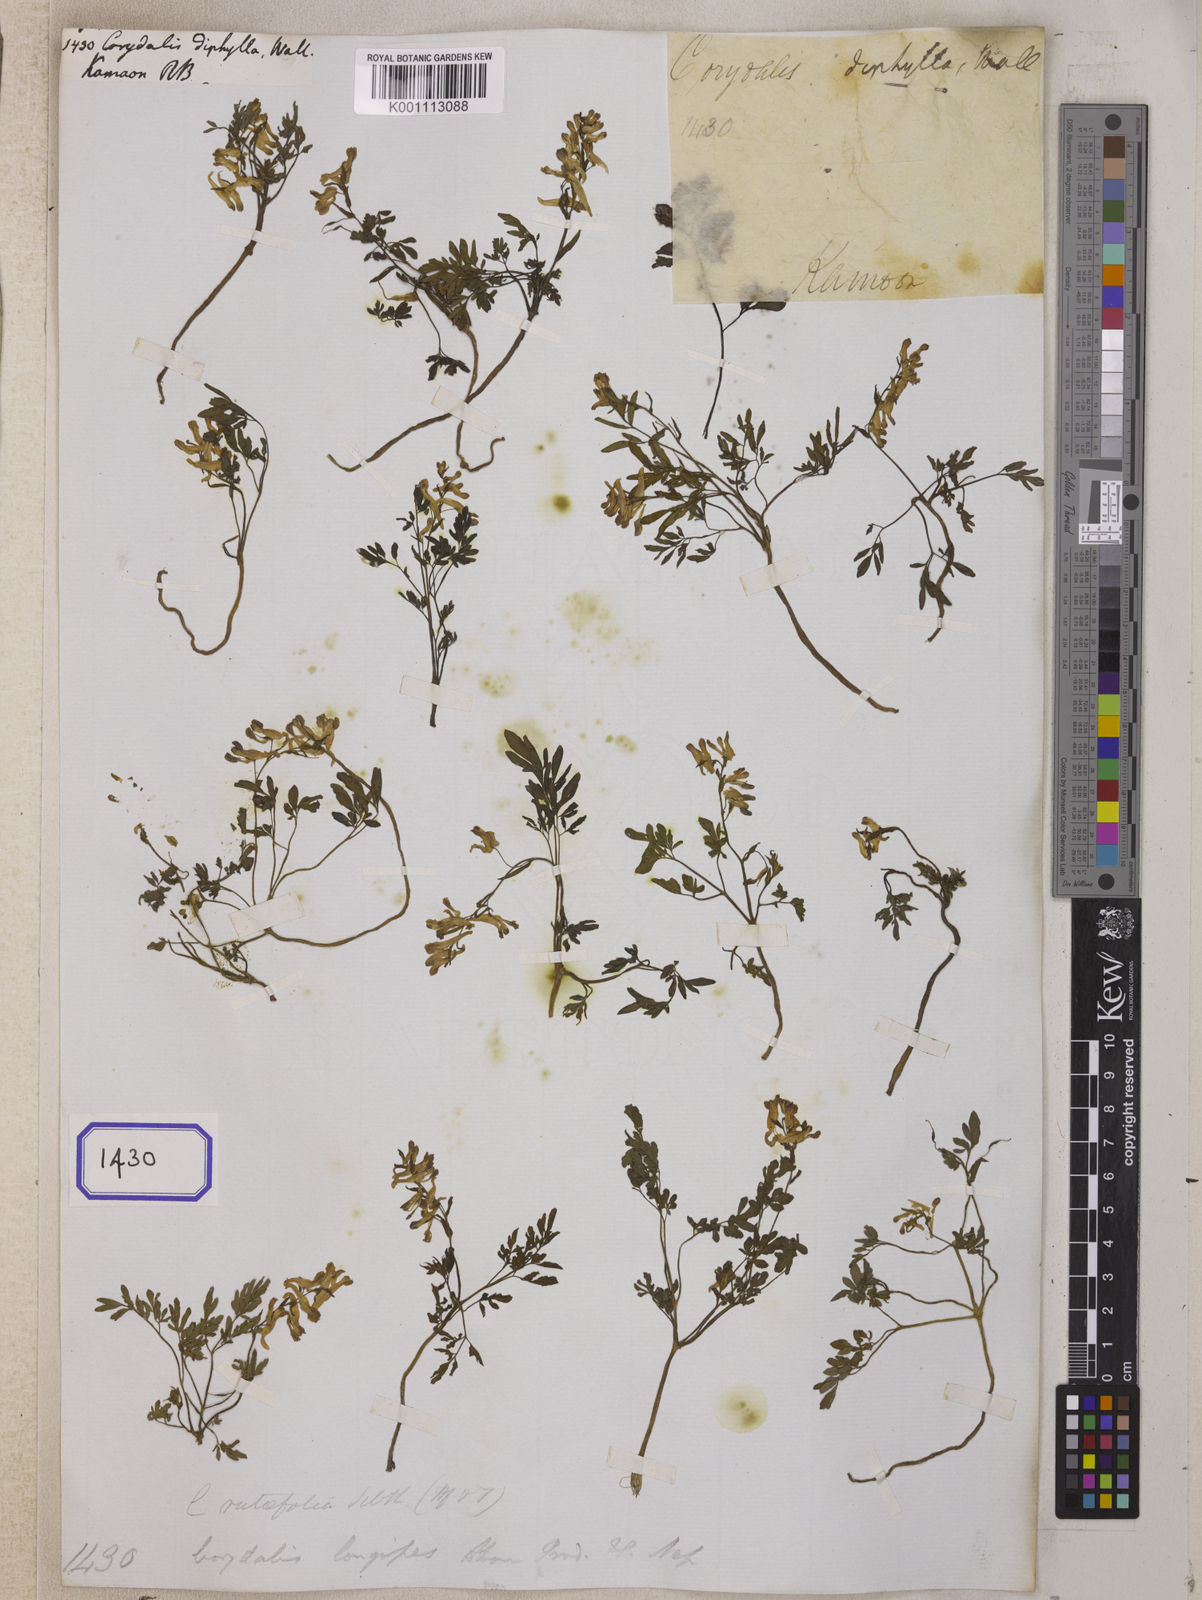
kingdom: Plantae
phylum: Tracheophyta
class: Magnoliopsida
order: Ranunculales
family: Papaveraceae
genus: Corydalis
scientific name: Corydalis diphylla
